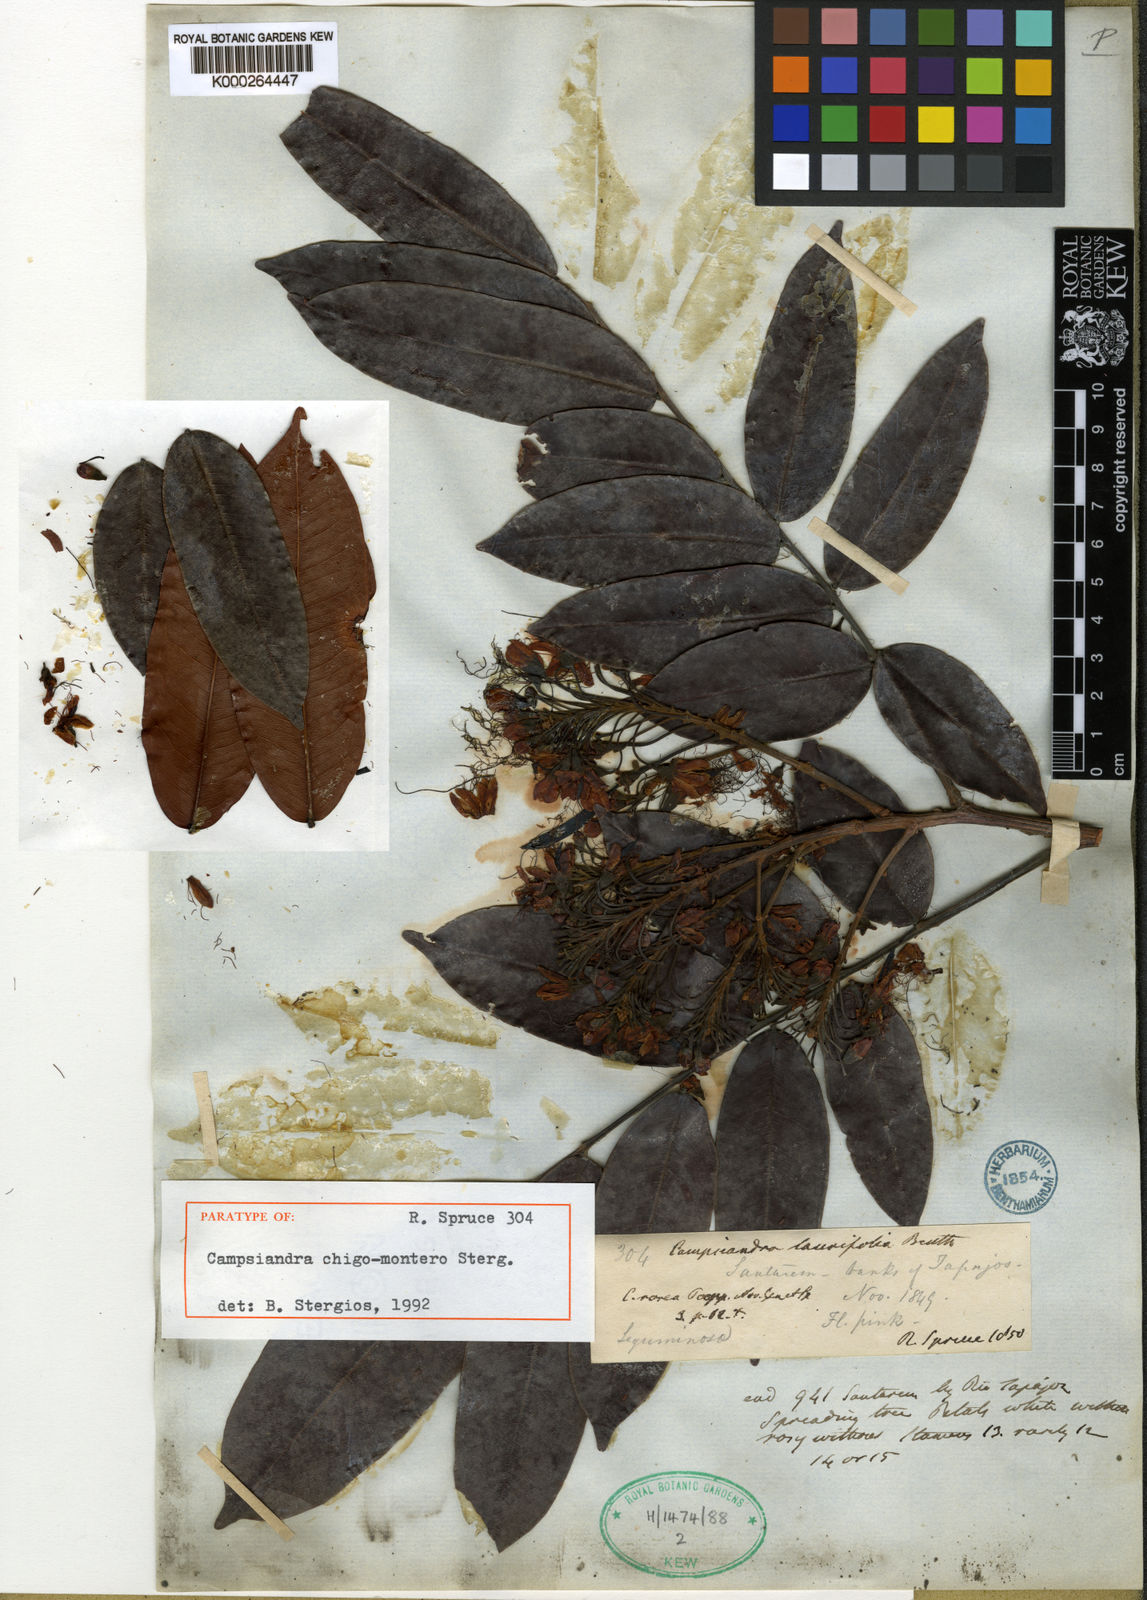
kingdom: Plantae
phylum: Tracheophyta
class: Magnoliopsida
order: Fabales
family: Fabaceae
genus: Campsiandra
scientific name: Campsiandra chigo-montero
